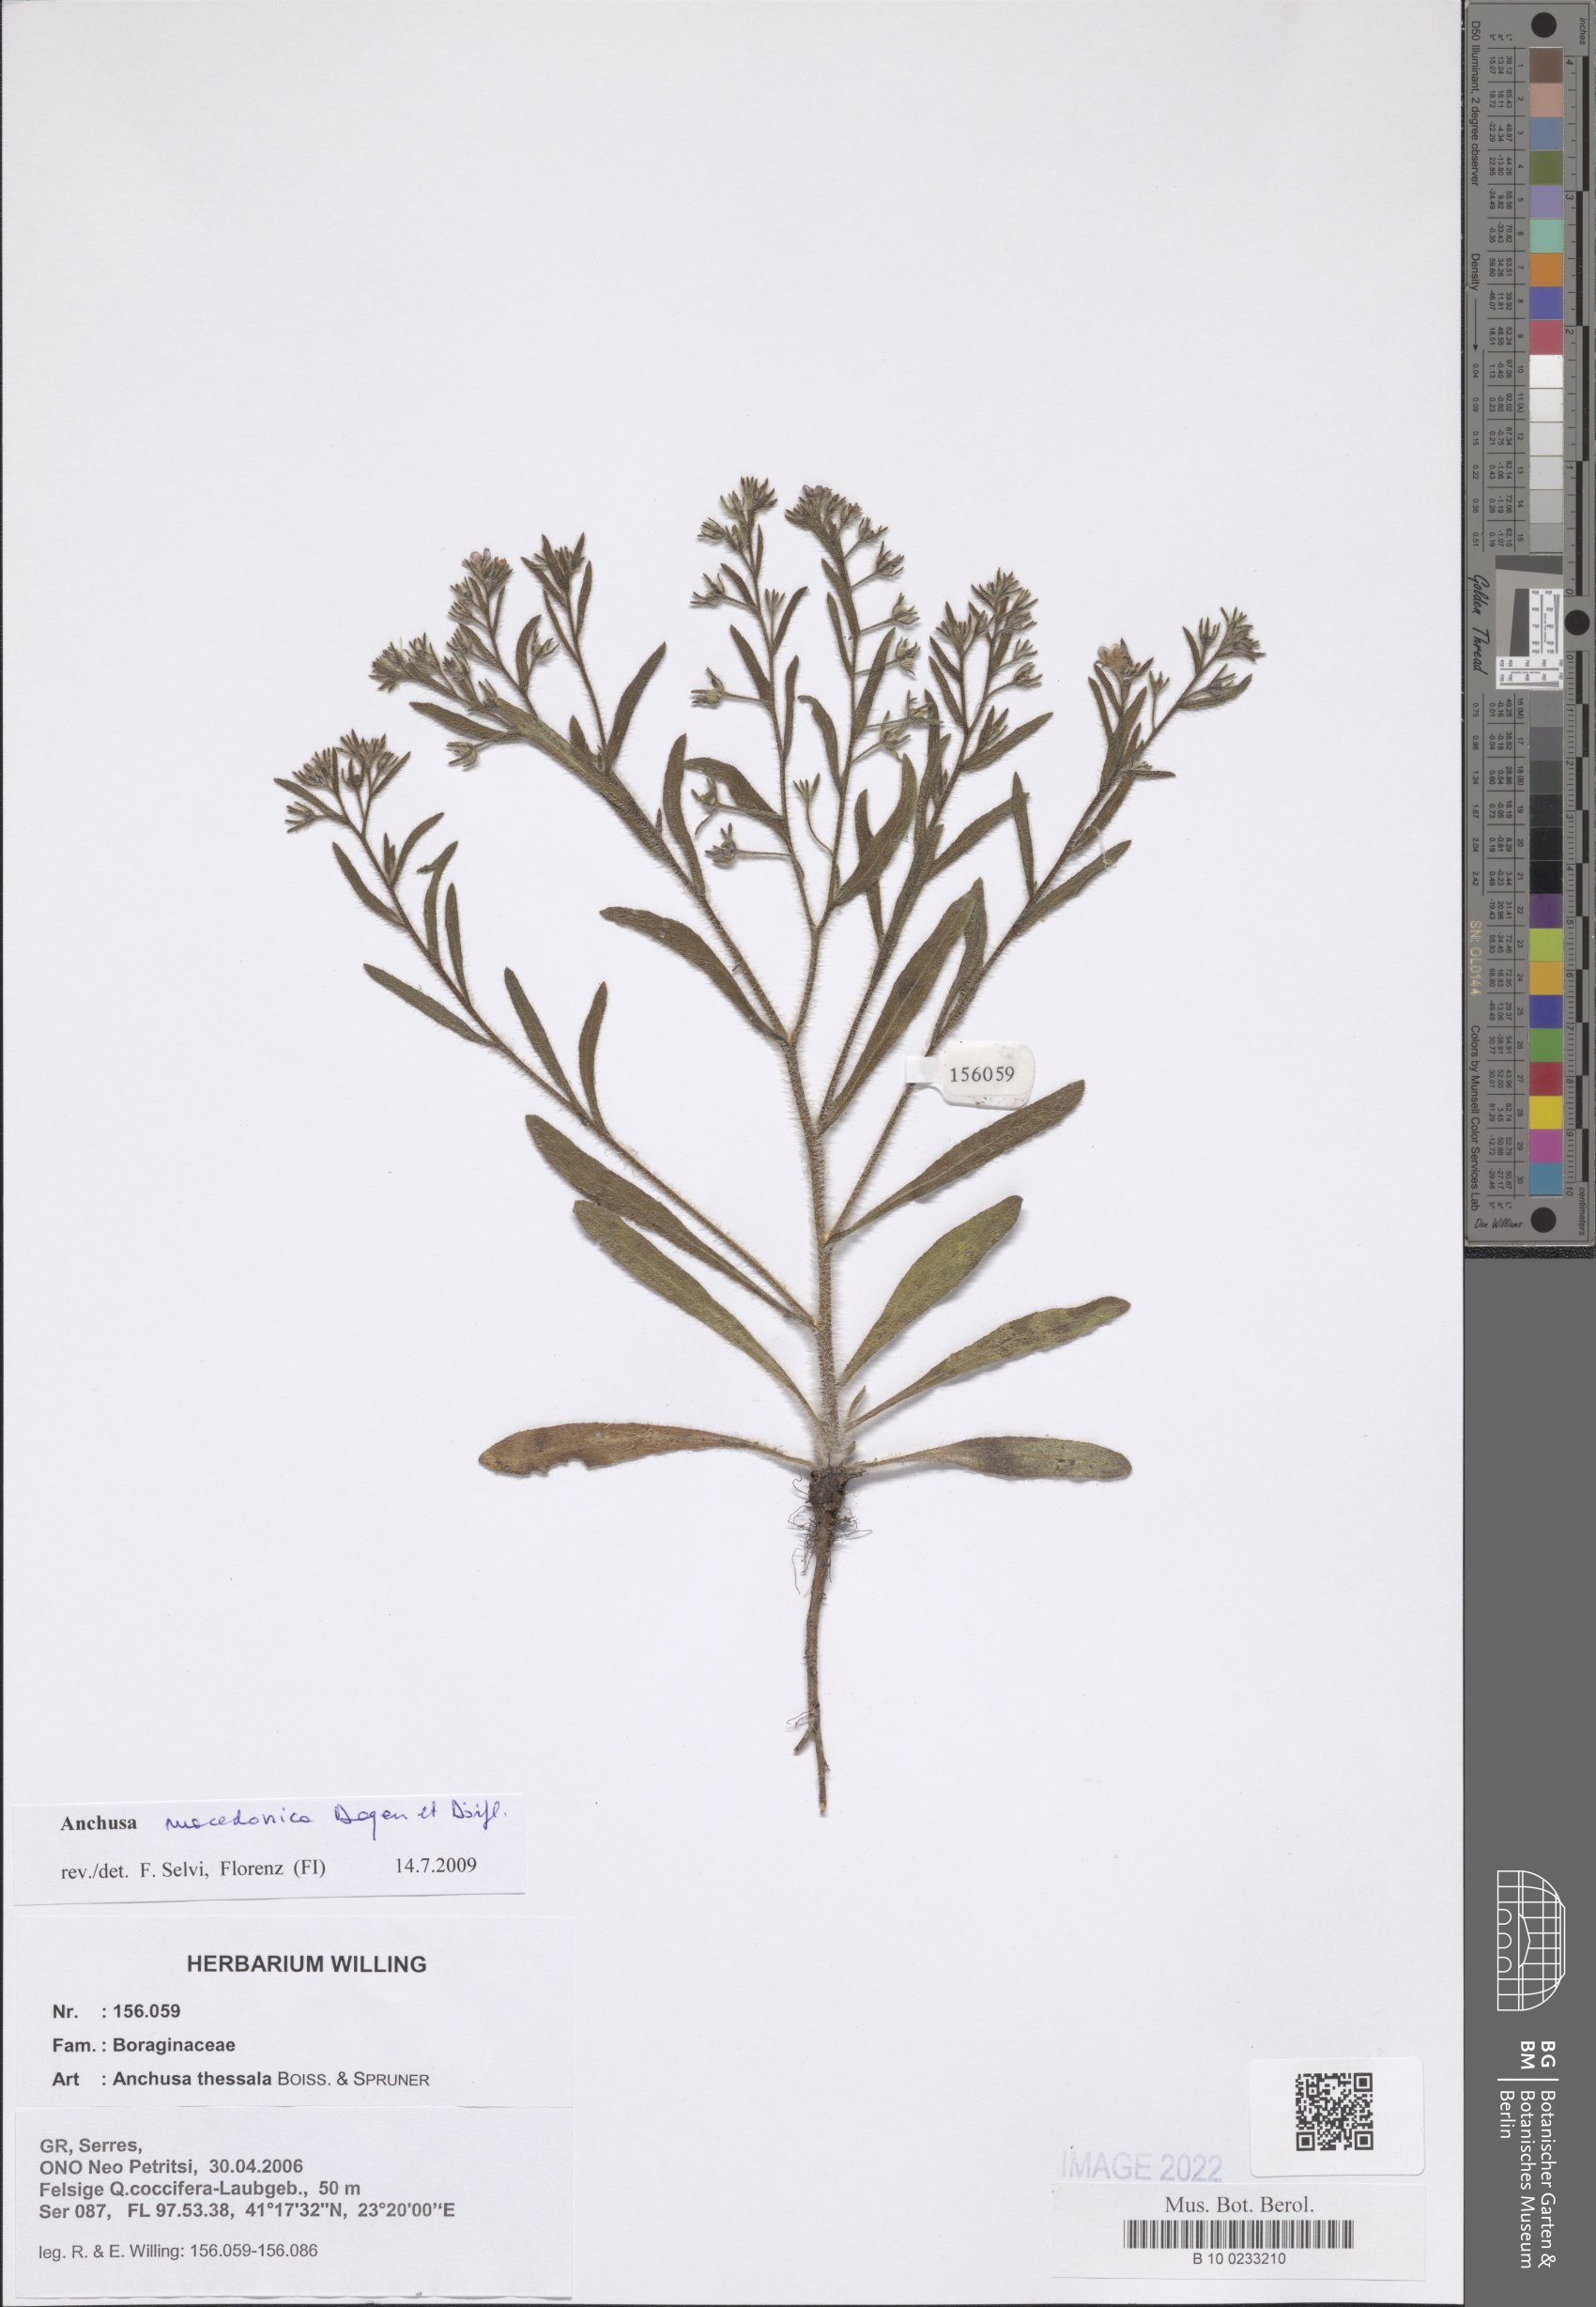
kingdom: Plantae
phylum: Tracheophyta
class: Magnoliopsida
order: Boraginales
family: Boraginaceae
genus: Anchusa
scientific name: Anchusa thessala
